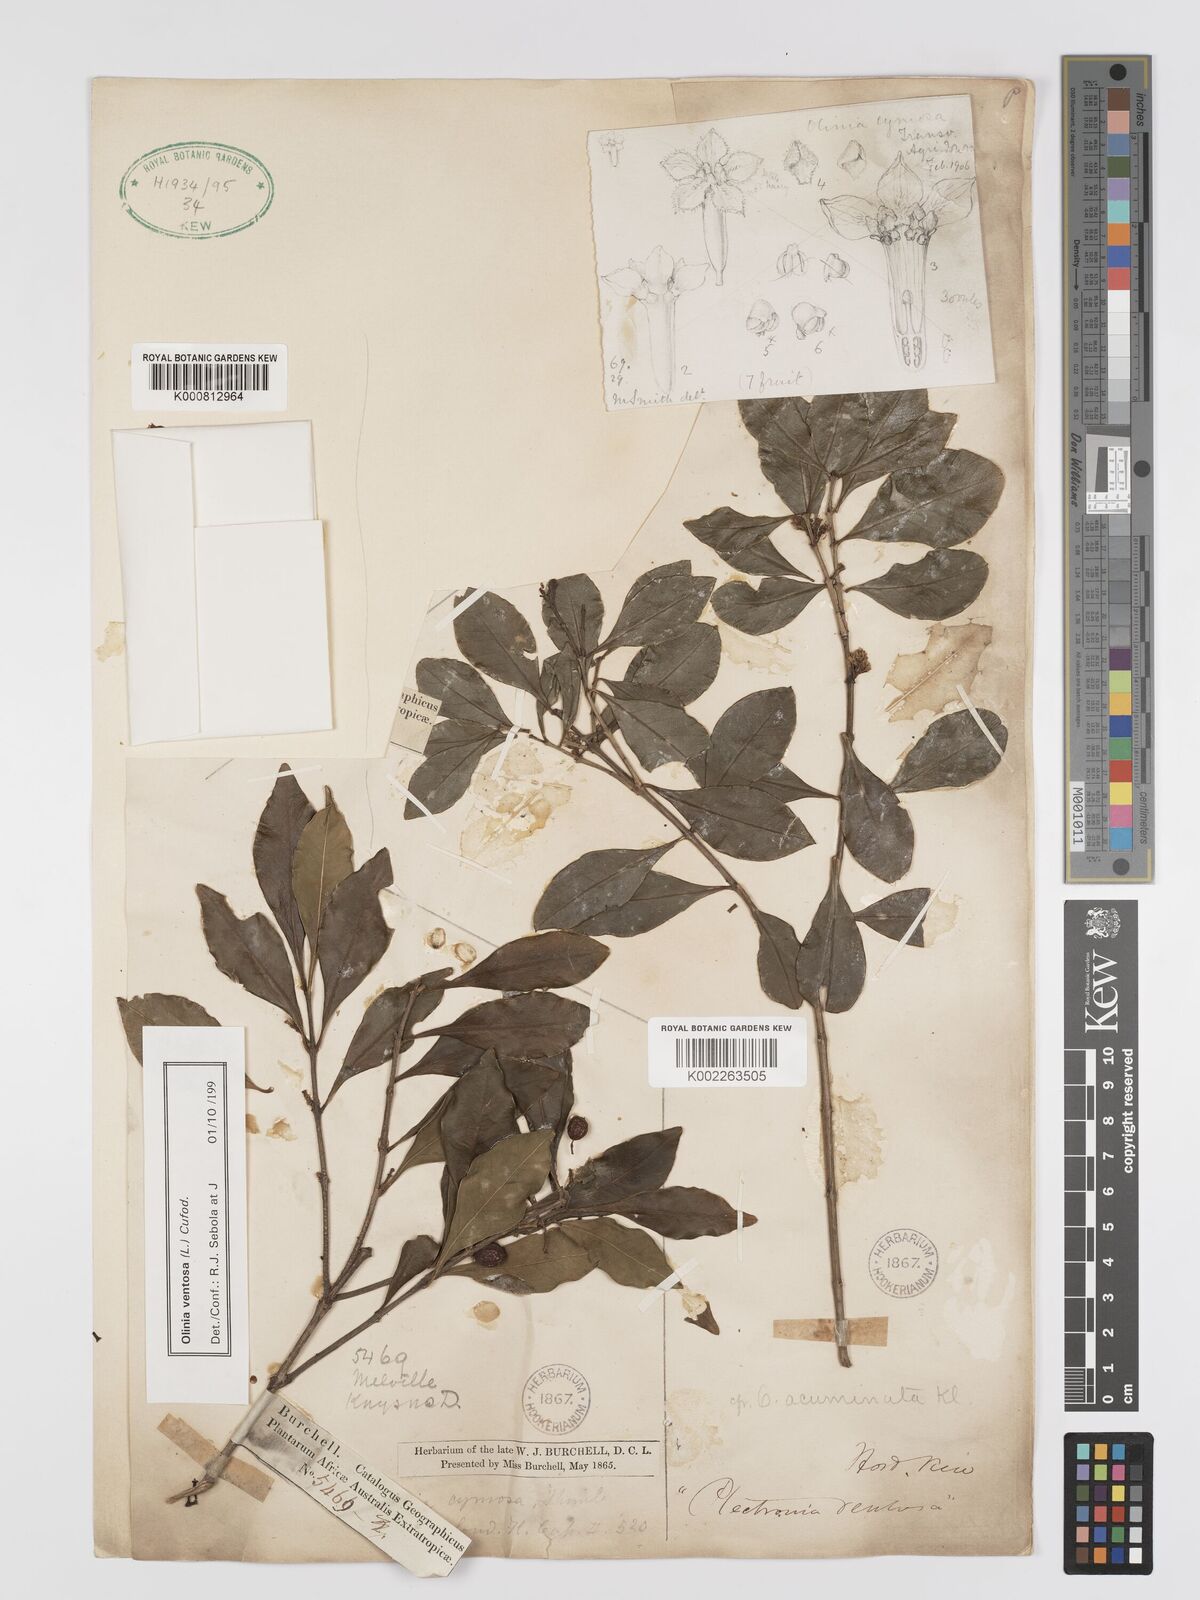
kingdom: Plantae
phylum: Tracheophyta
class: Magnoliopsida
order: Myrtales
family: Penaeaceae
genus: Olinia
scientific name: Olinia ventosa
